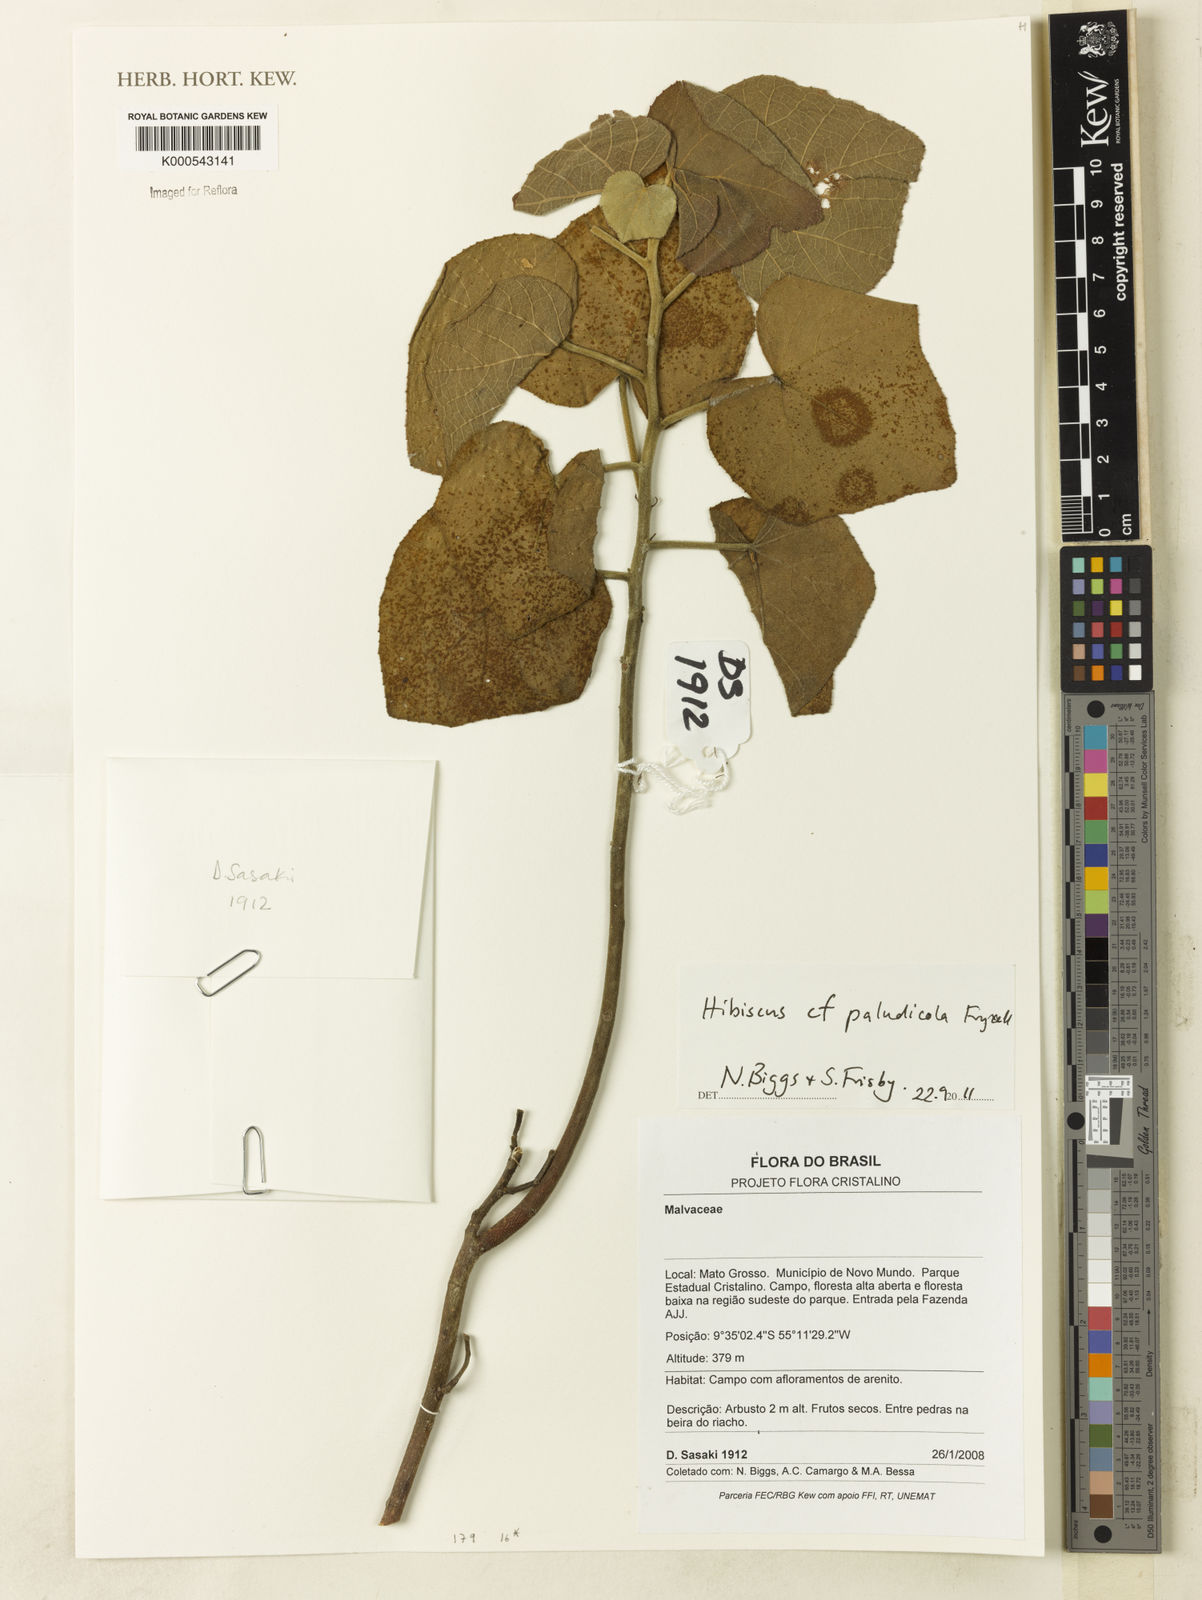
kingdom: Plantae
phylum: Tracheophyta
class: Magnoliopsida
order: Malvales
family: Malvaceae
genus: Hibiscus
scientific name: Hibiscus paludicola
